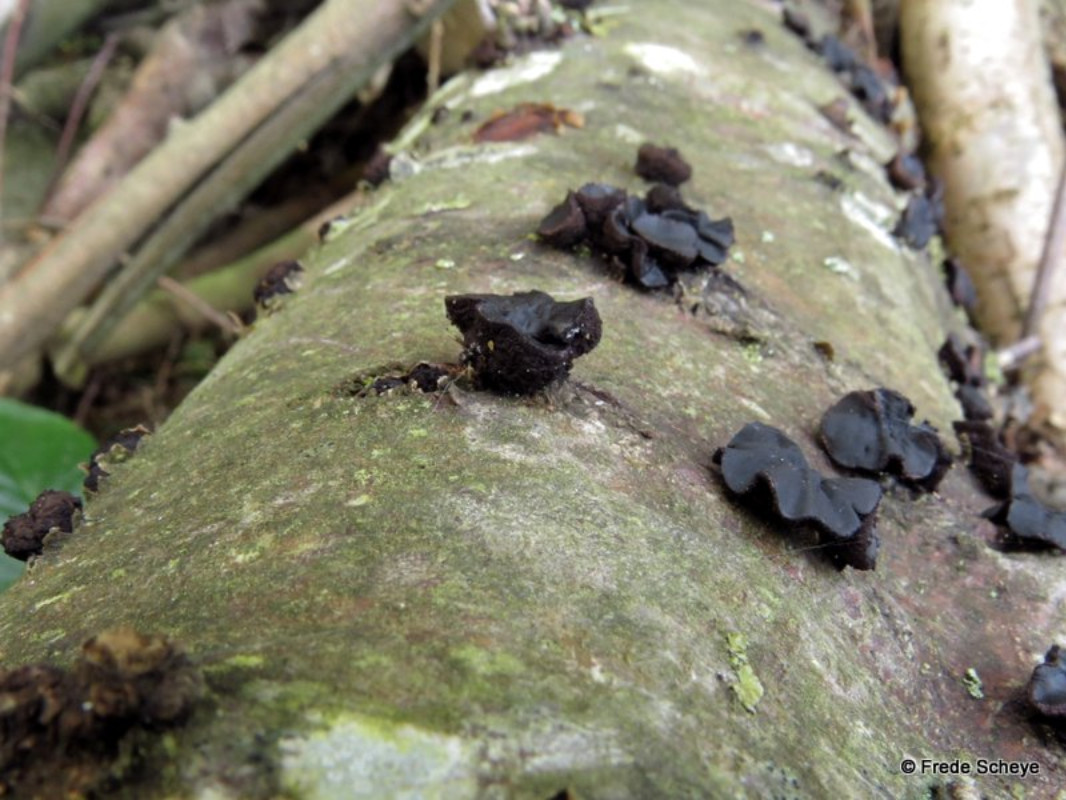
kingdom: Fungi
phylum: Ascomycota
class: Leotiomycetes
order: Phacidiales
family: Phacidiaceae
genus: Bulgaria
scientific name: Bulgaria inquinans
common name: afsmittende topsvamp
